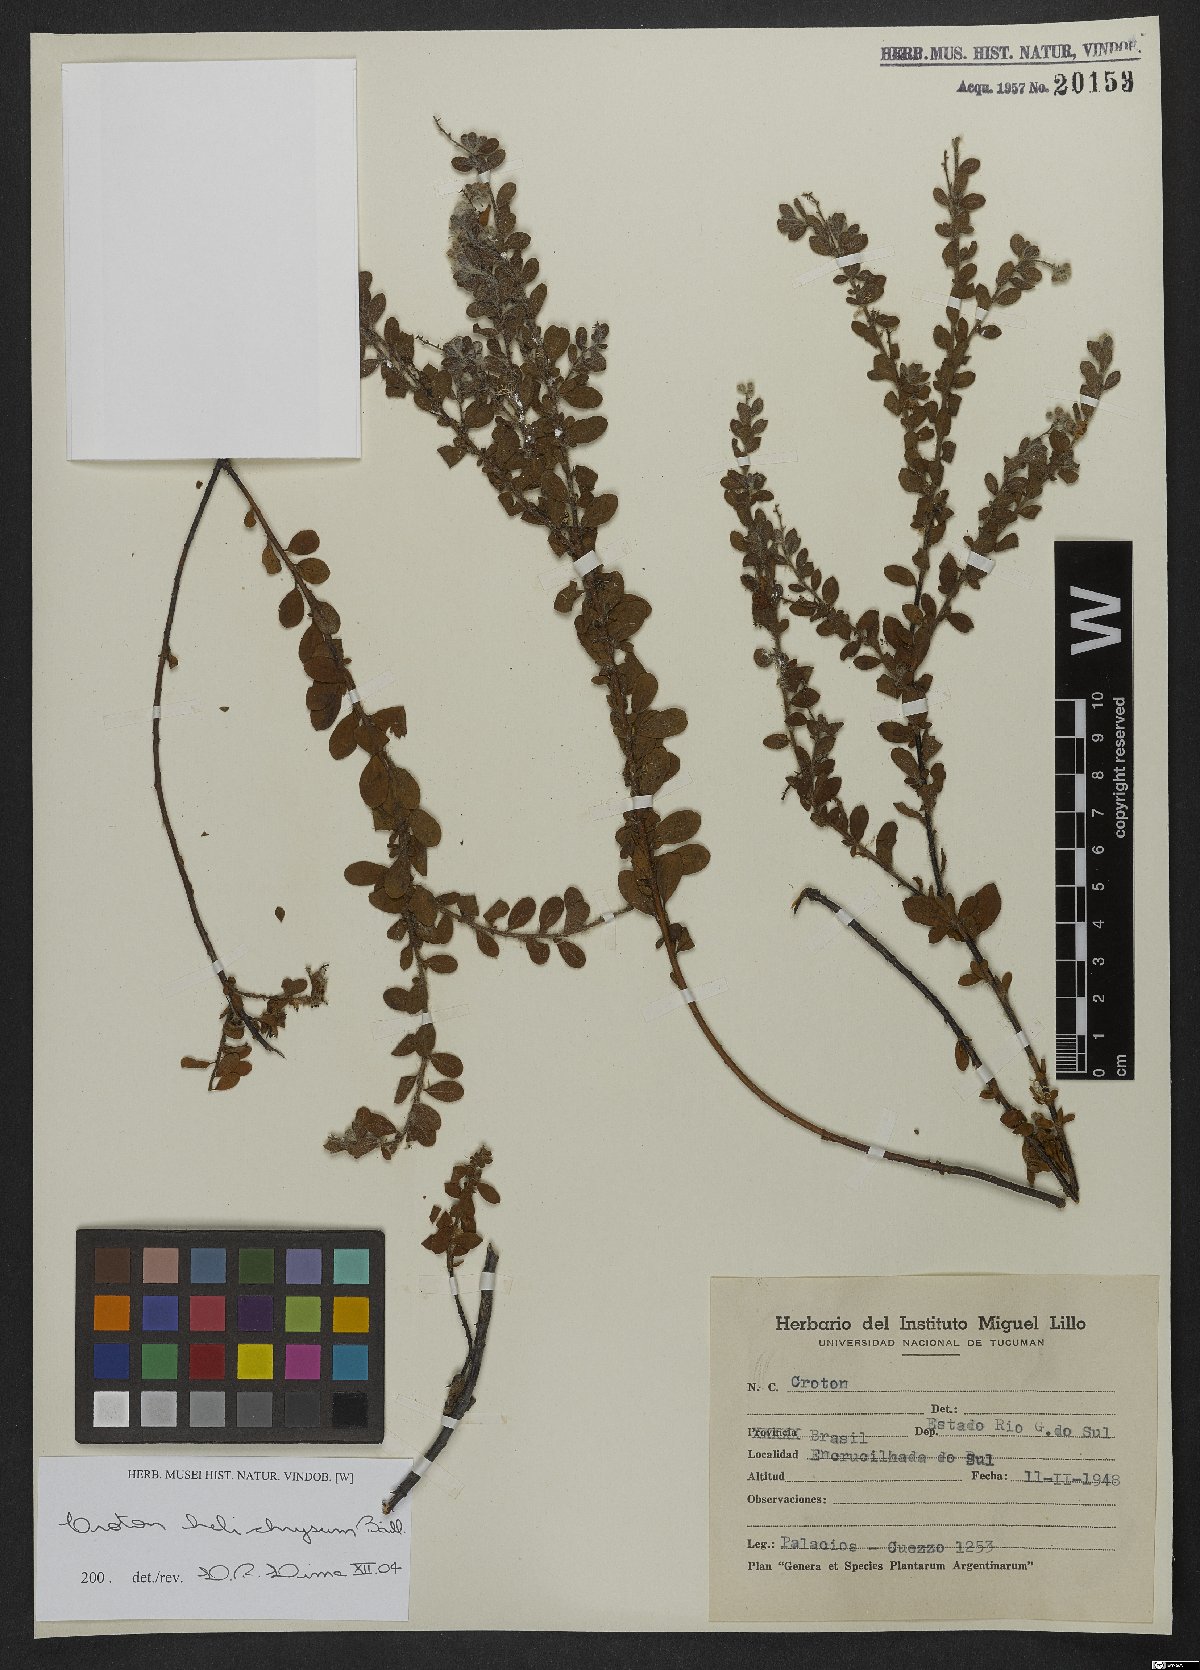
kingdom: Plantae
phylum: Tracheophyta
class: Magnoliopsida
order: Malpighiales
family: Euphorbiaceae
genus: Croton
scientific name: Croton helichrysum
